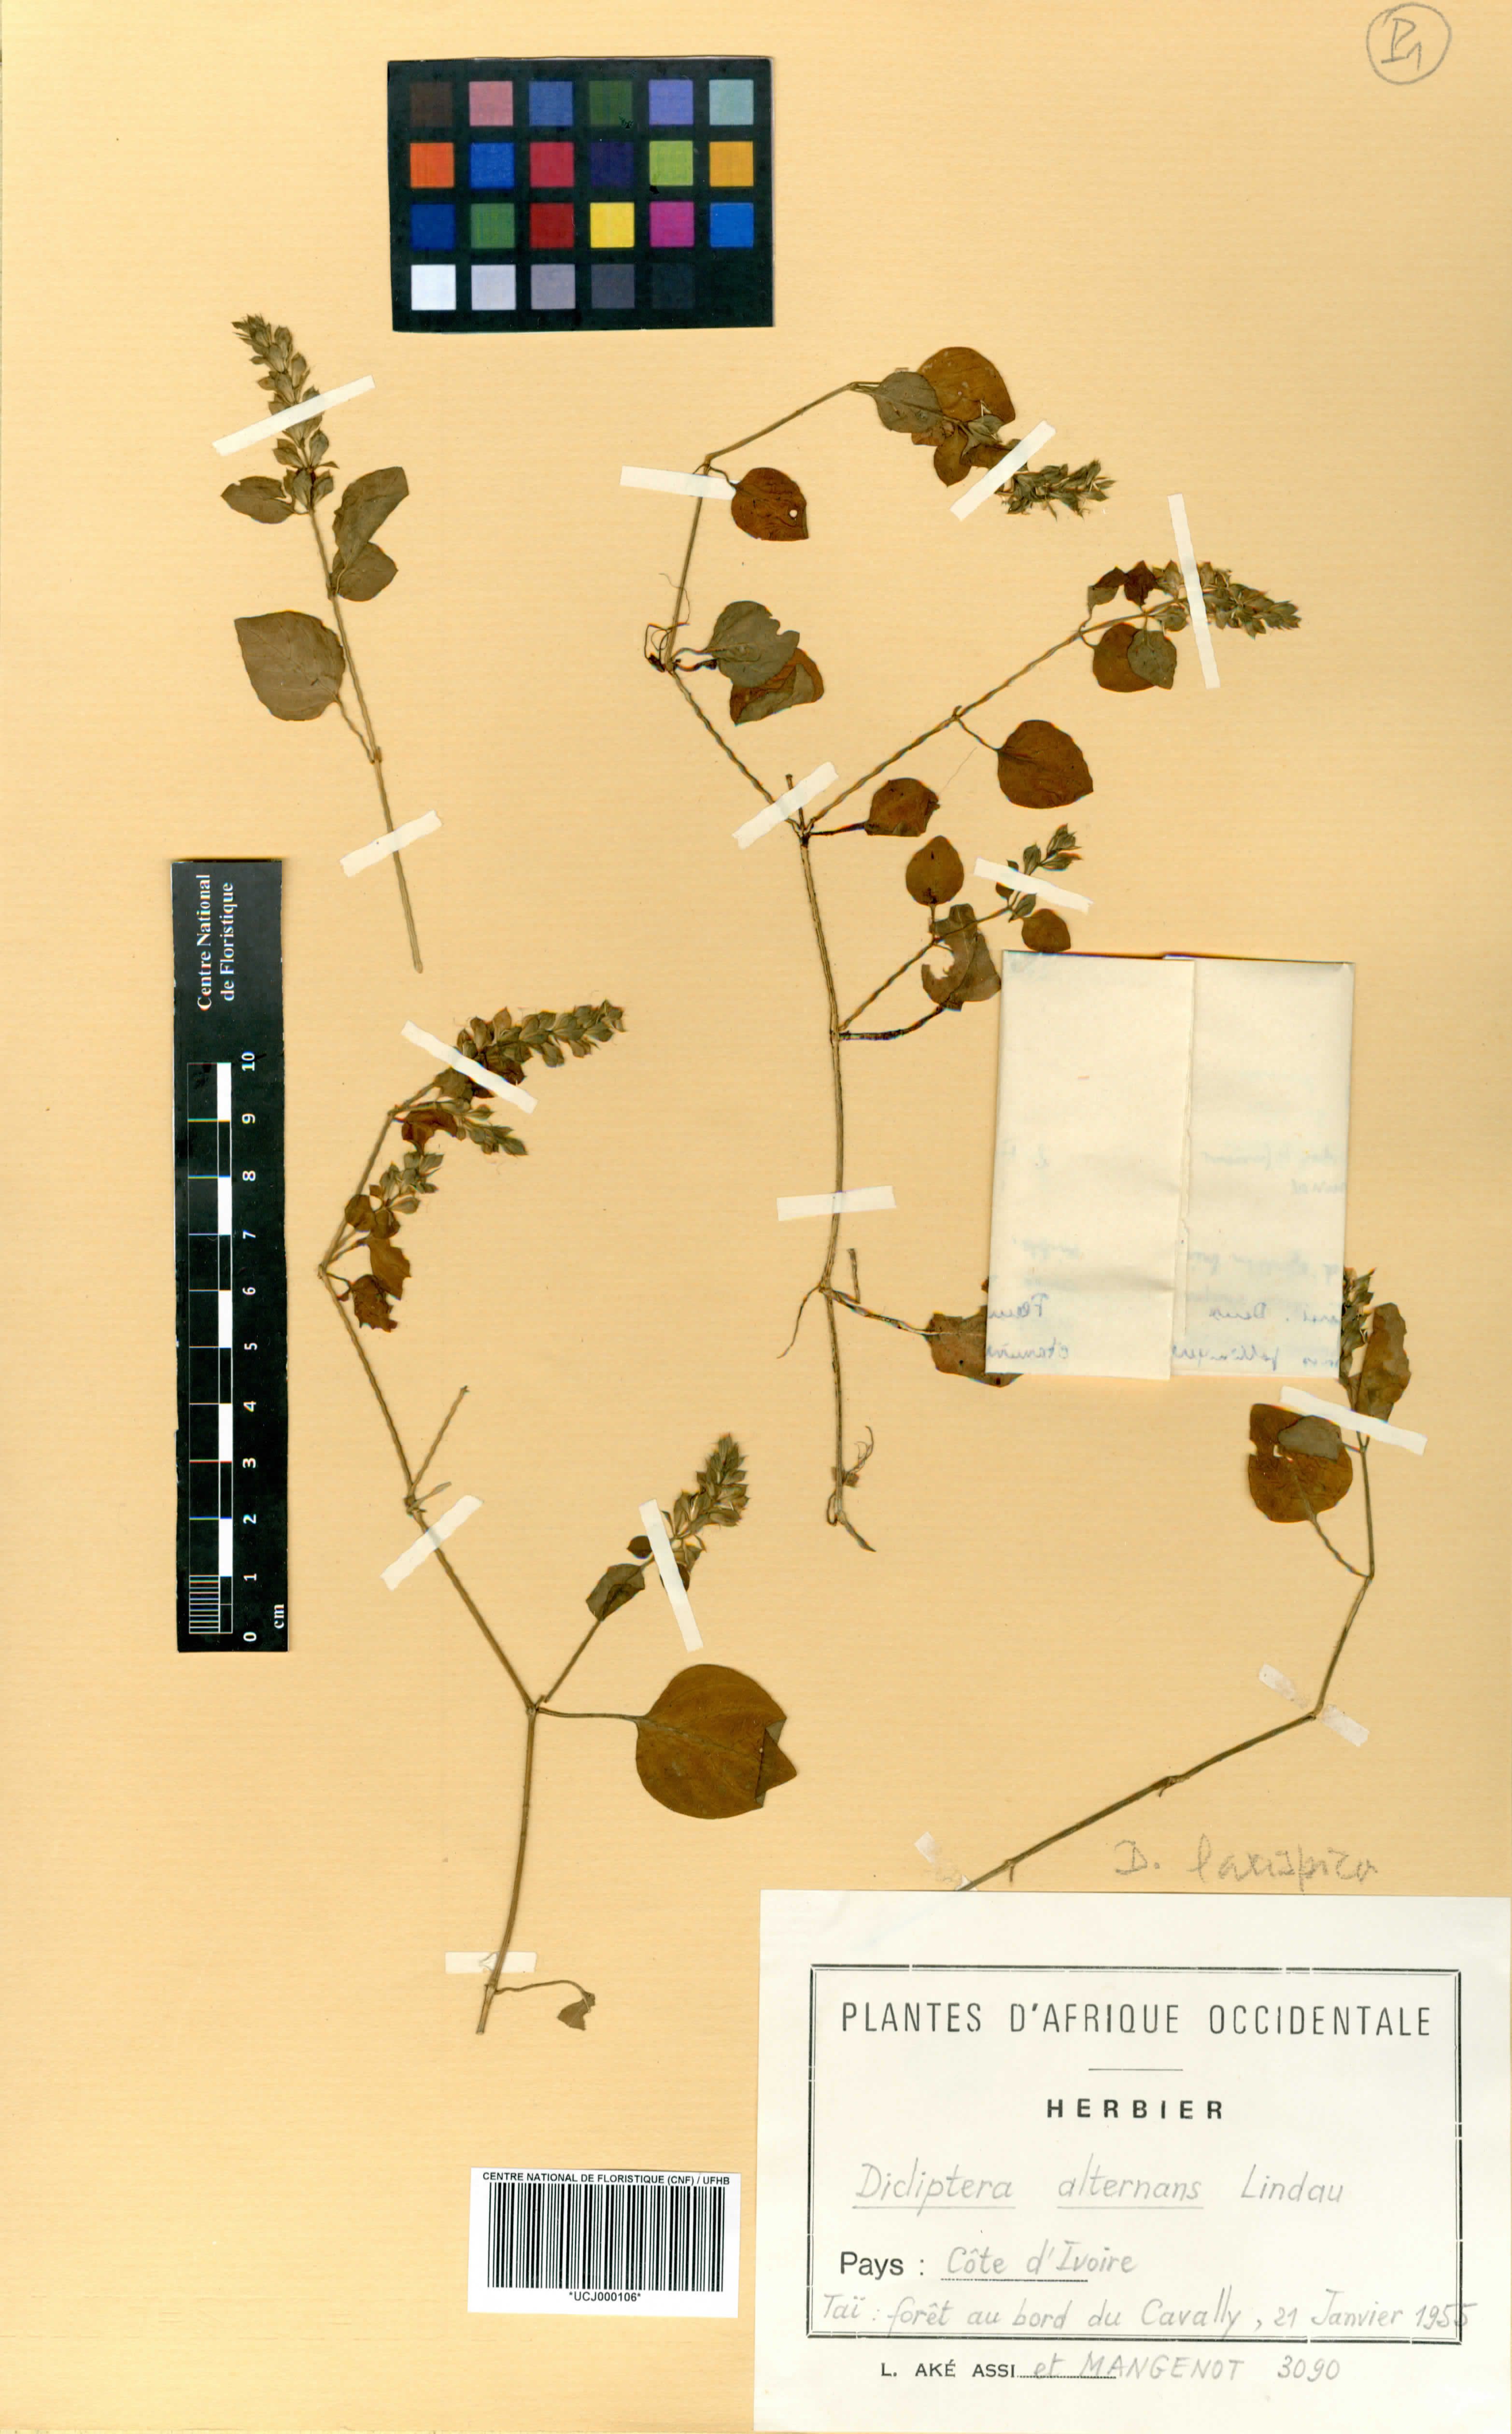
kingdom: Plantae
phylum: Tracheophyta
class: Magnoliopsida
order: Lamiales
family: Acanthaceae
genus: Dicliptera
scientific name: Dicliptera alternans
